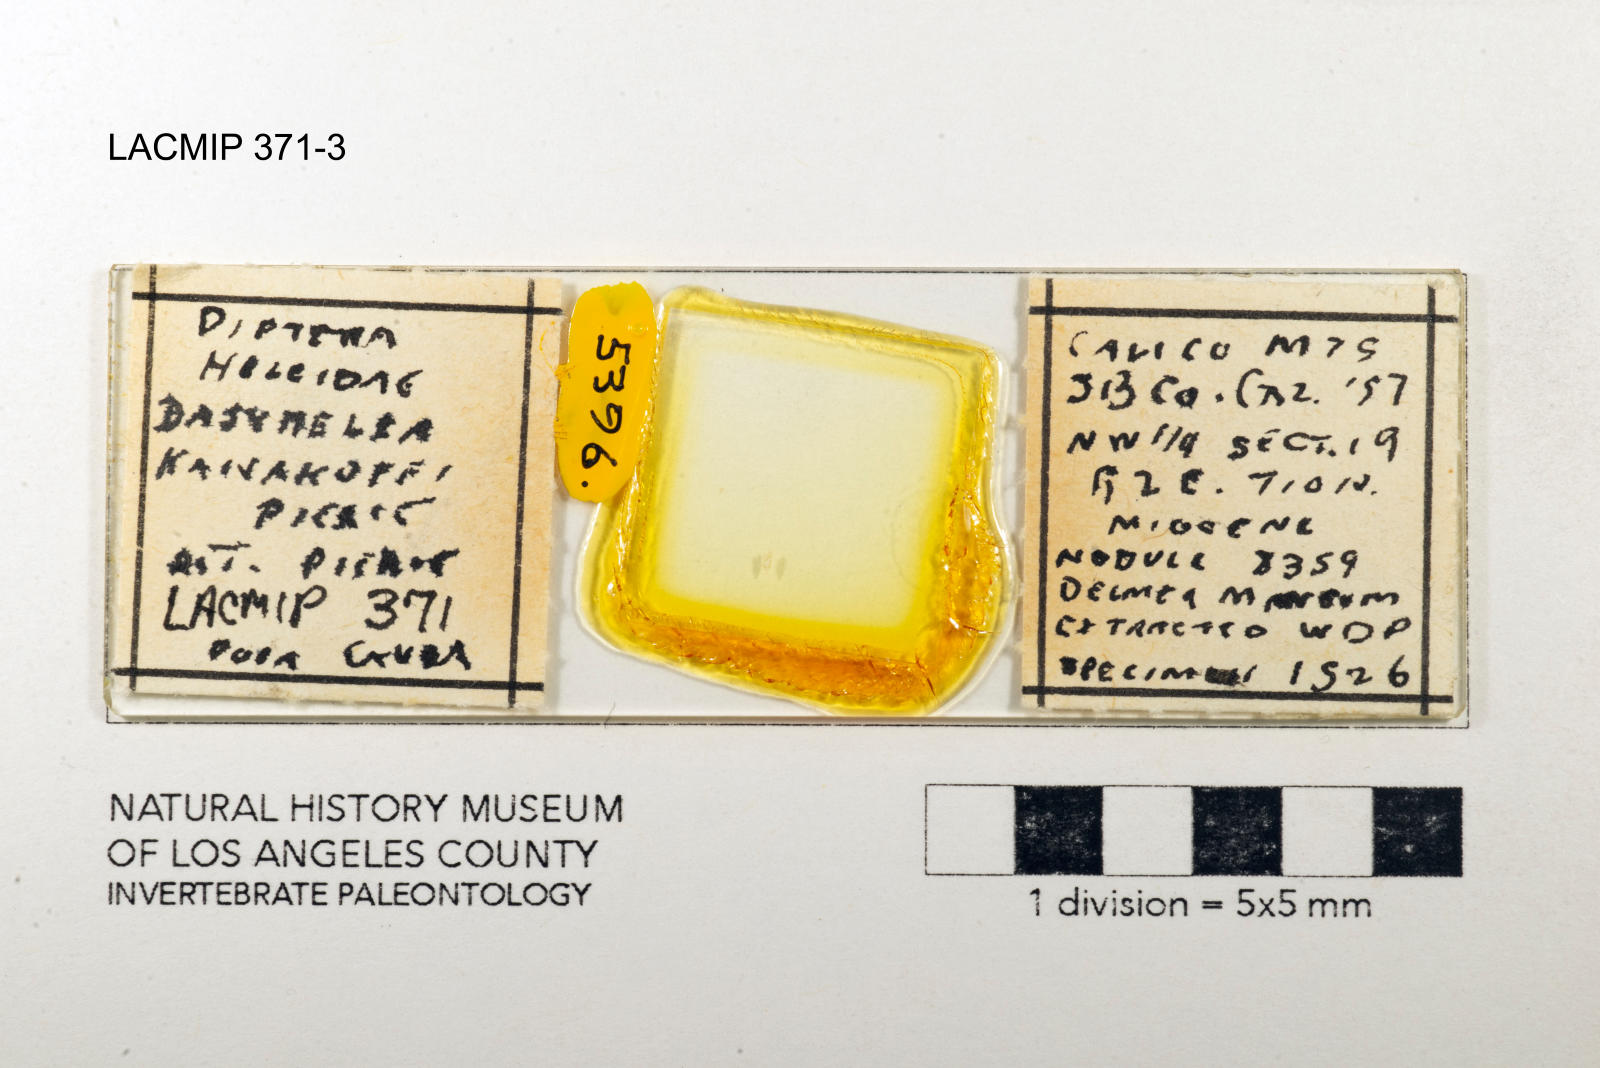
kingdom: Animalia
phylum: Arthropoda
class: Insecta
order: Diptera
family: Ceratopogonidae
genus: Dasyhelea
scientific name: Dasyhelea kanakoffi
